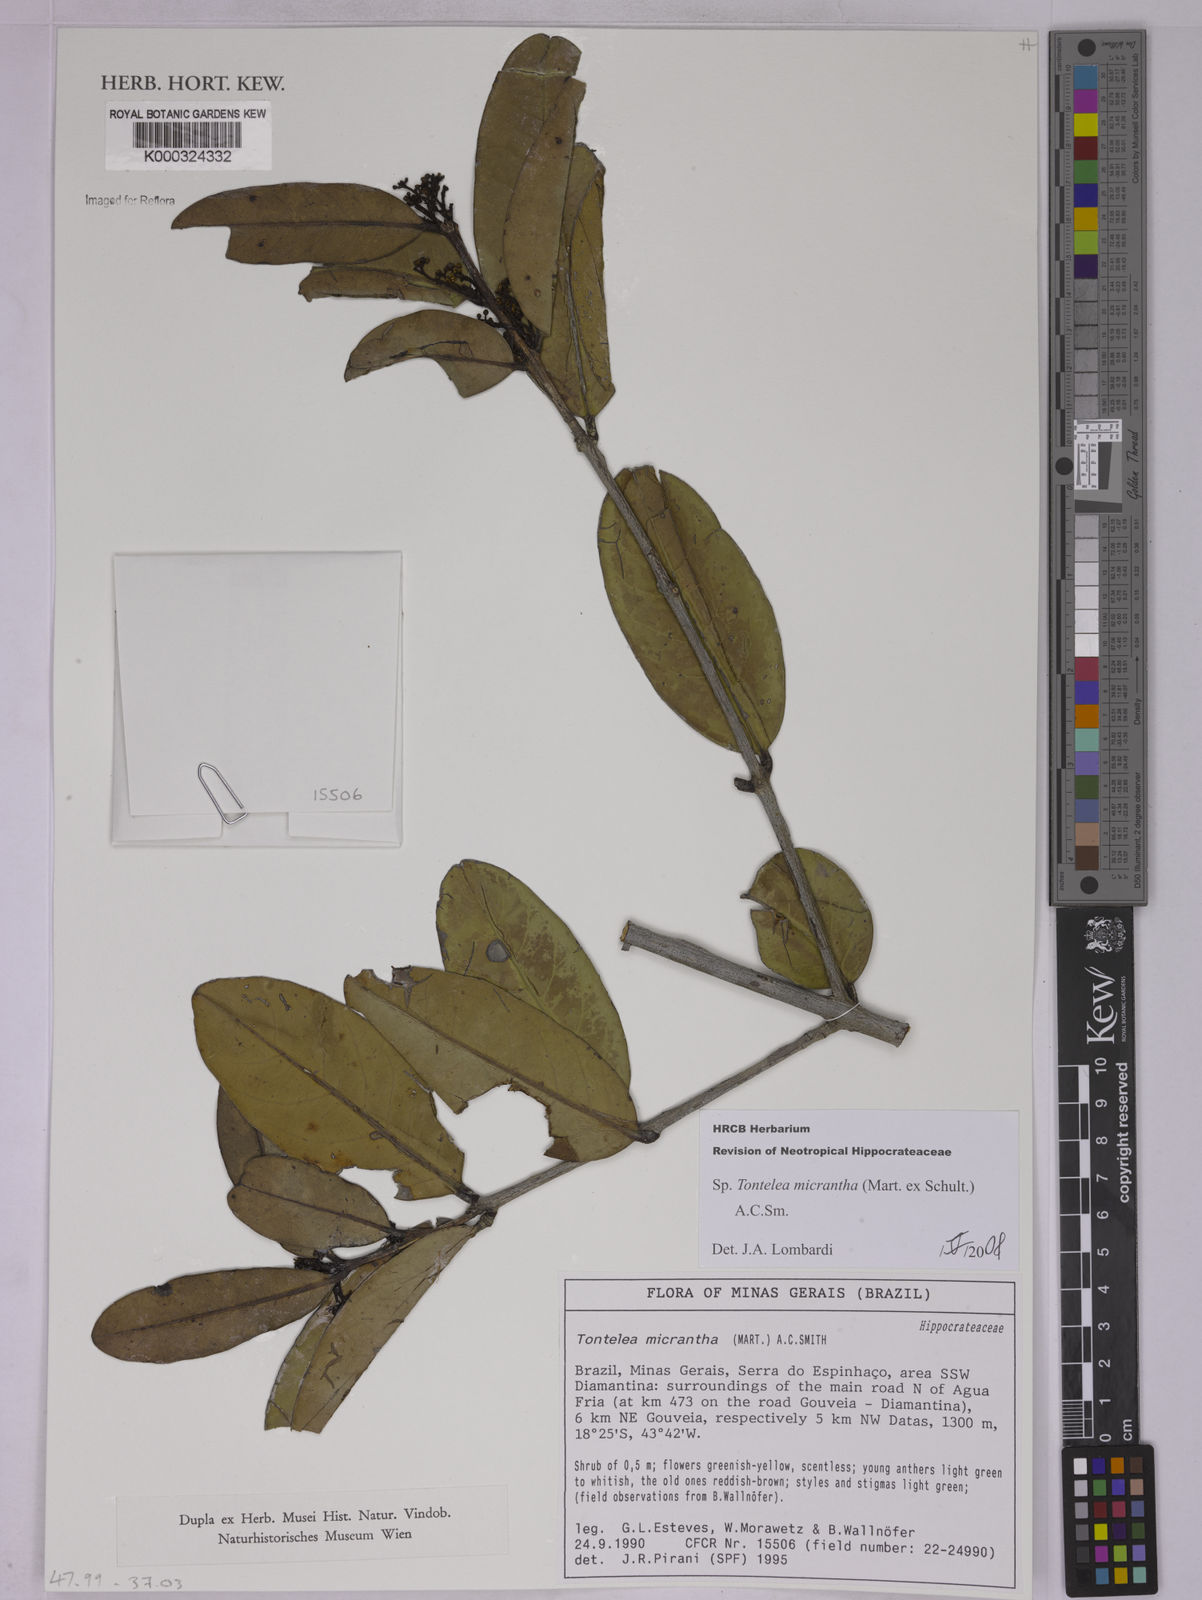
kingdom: Plantae
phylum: Tracheophyta
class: Magnoliopsida
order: Celastrales
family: Celastraceae
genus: Tontelea
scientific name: Tontelea micrantha
